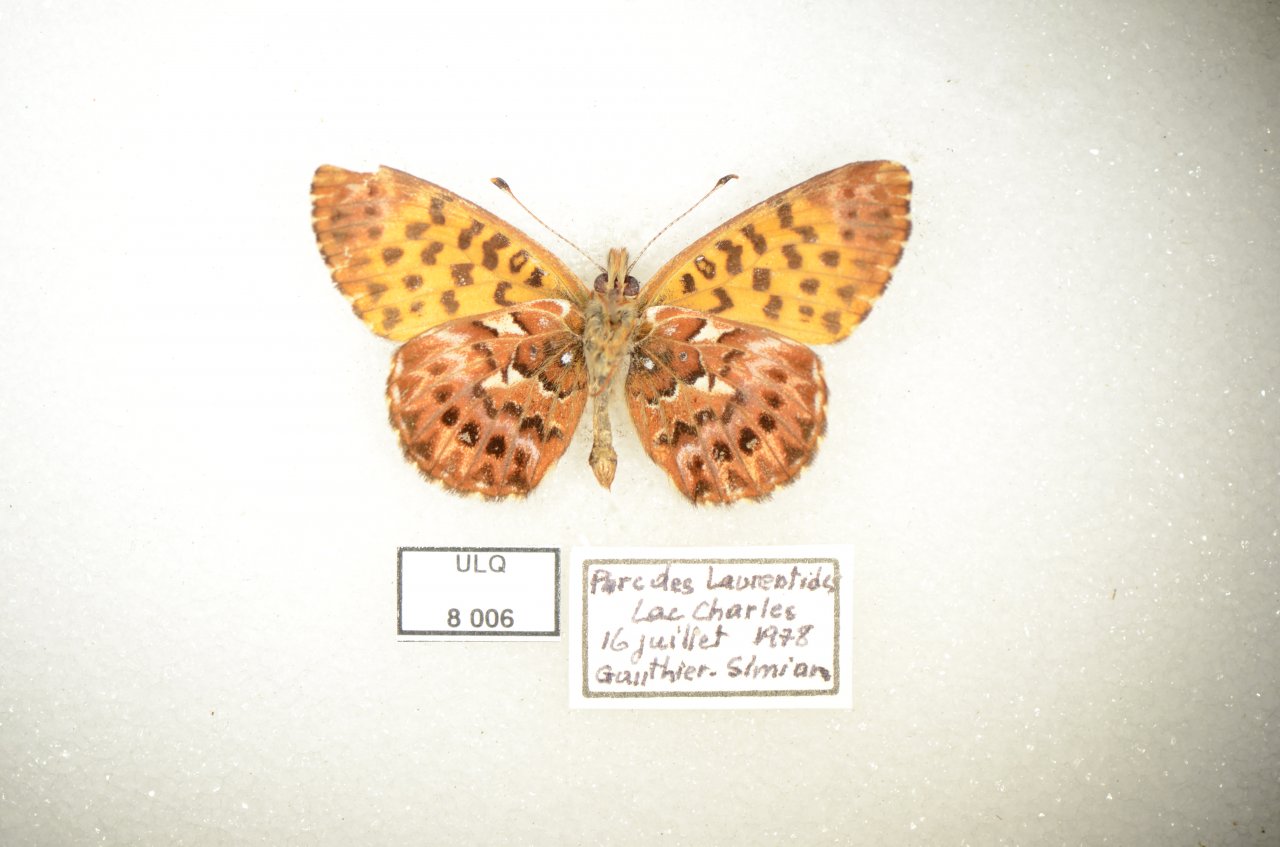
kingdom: Animalia
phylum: Arthropoda
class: Insecta
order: Lepidoptera
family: Nymphalidae
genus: Boloria
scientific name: Boloria chariclea
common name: Arctic Fritillary
